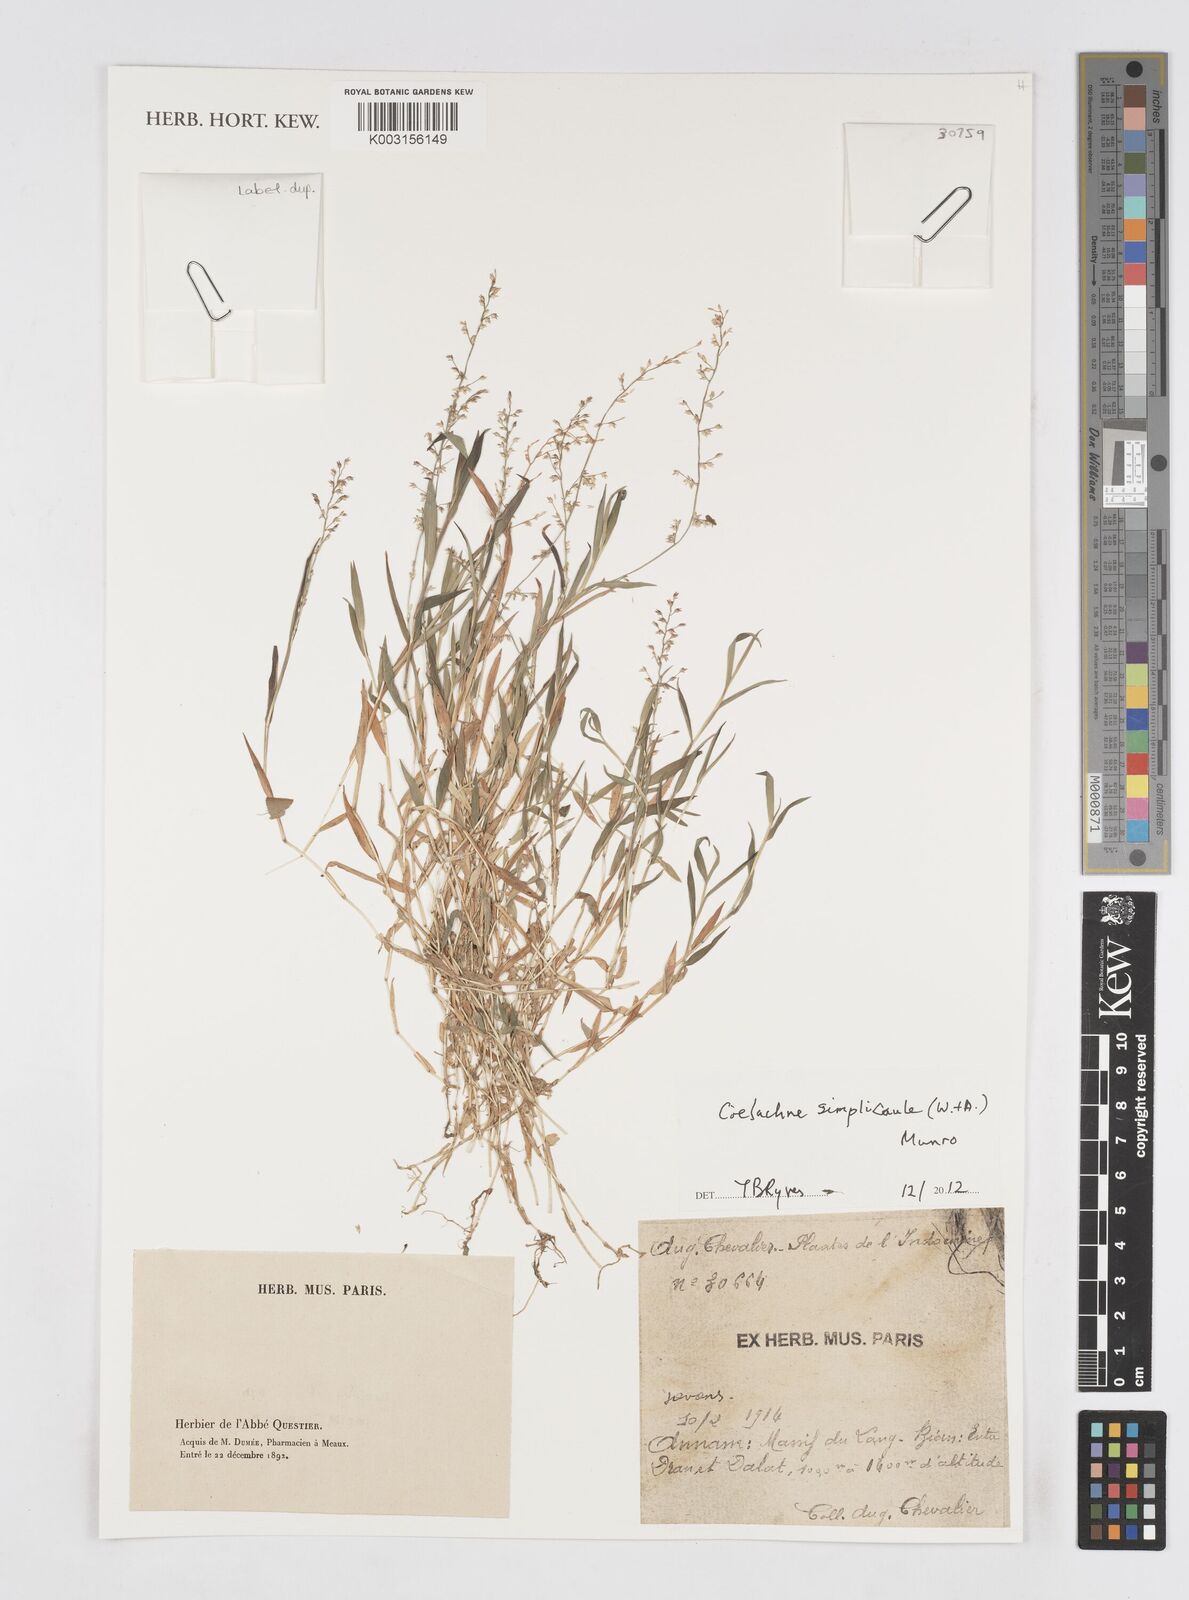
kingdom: Plantae
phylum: Tracheophyta
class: Liliopsida
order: Poales
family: Poaceae
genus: Coelachne
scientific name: Coelachne simpliciuscula
